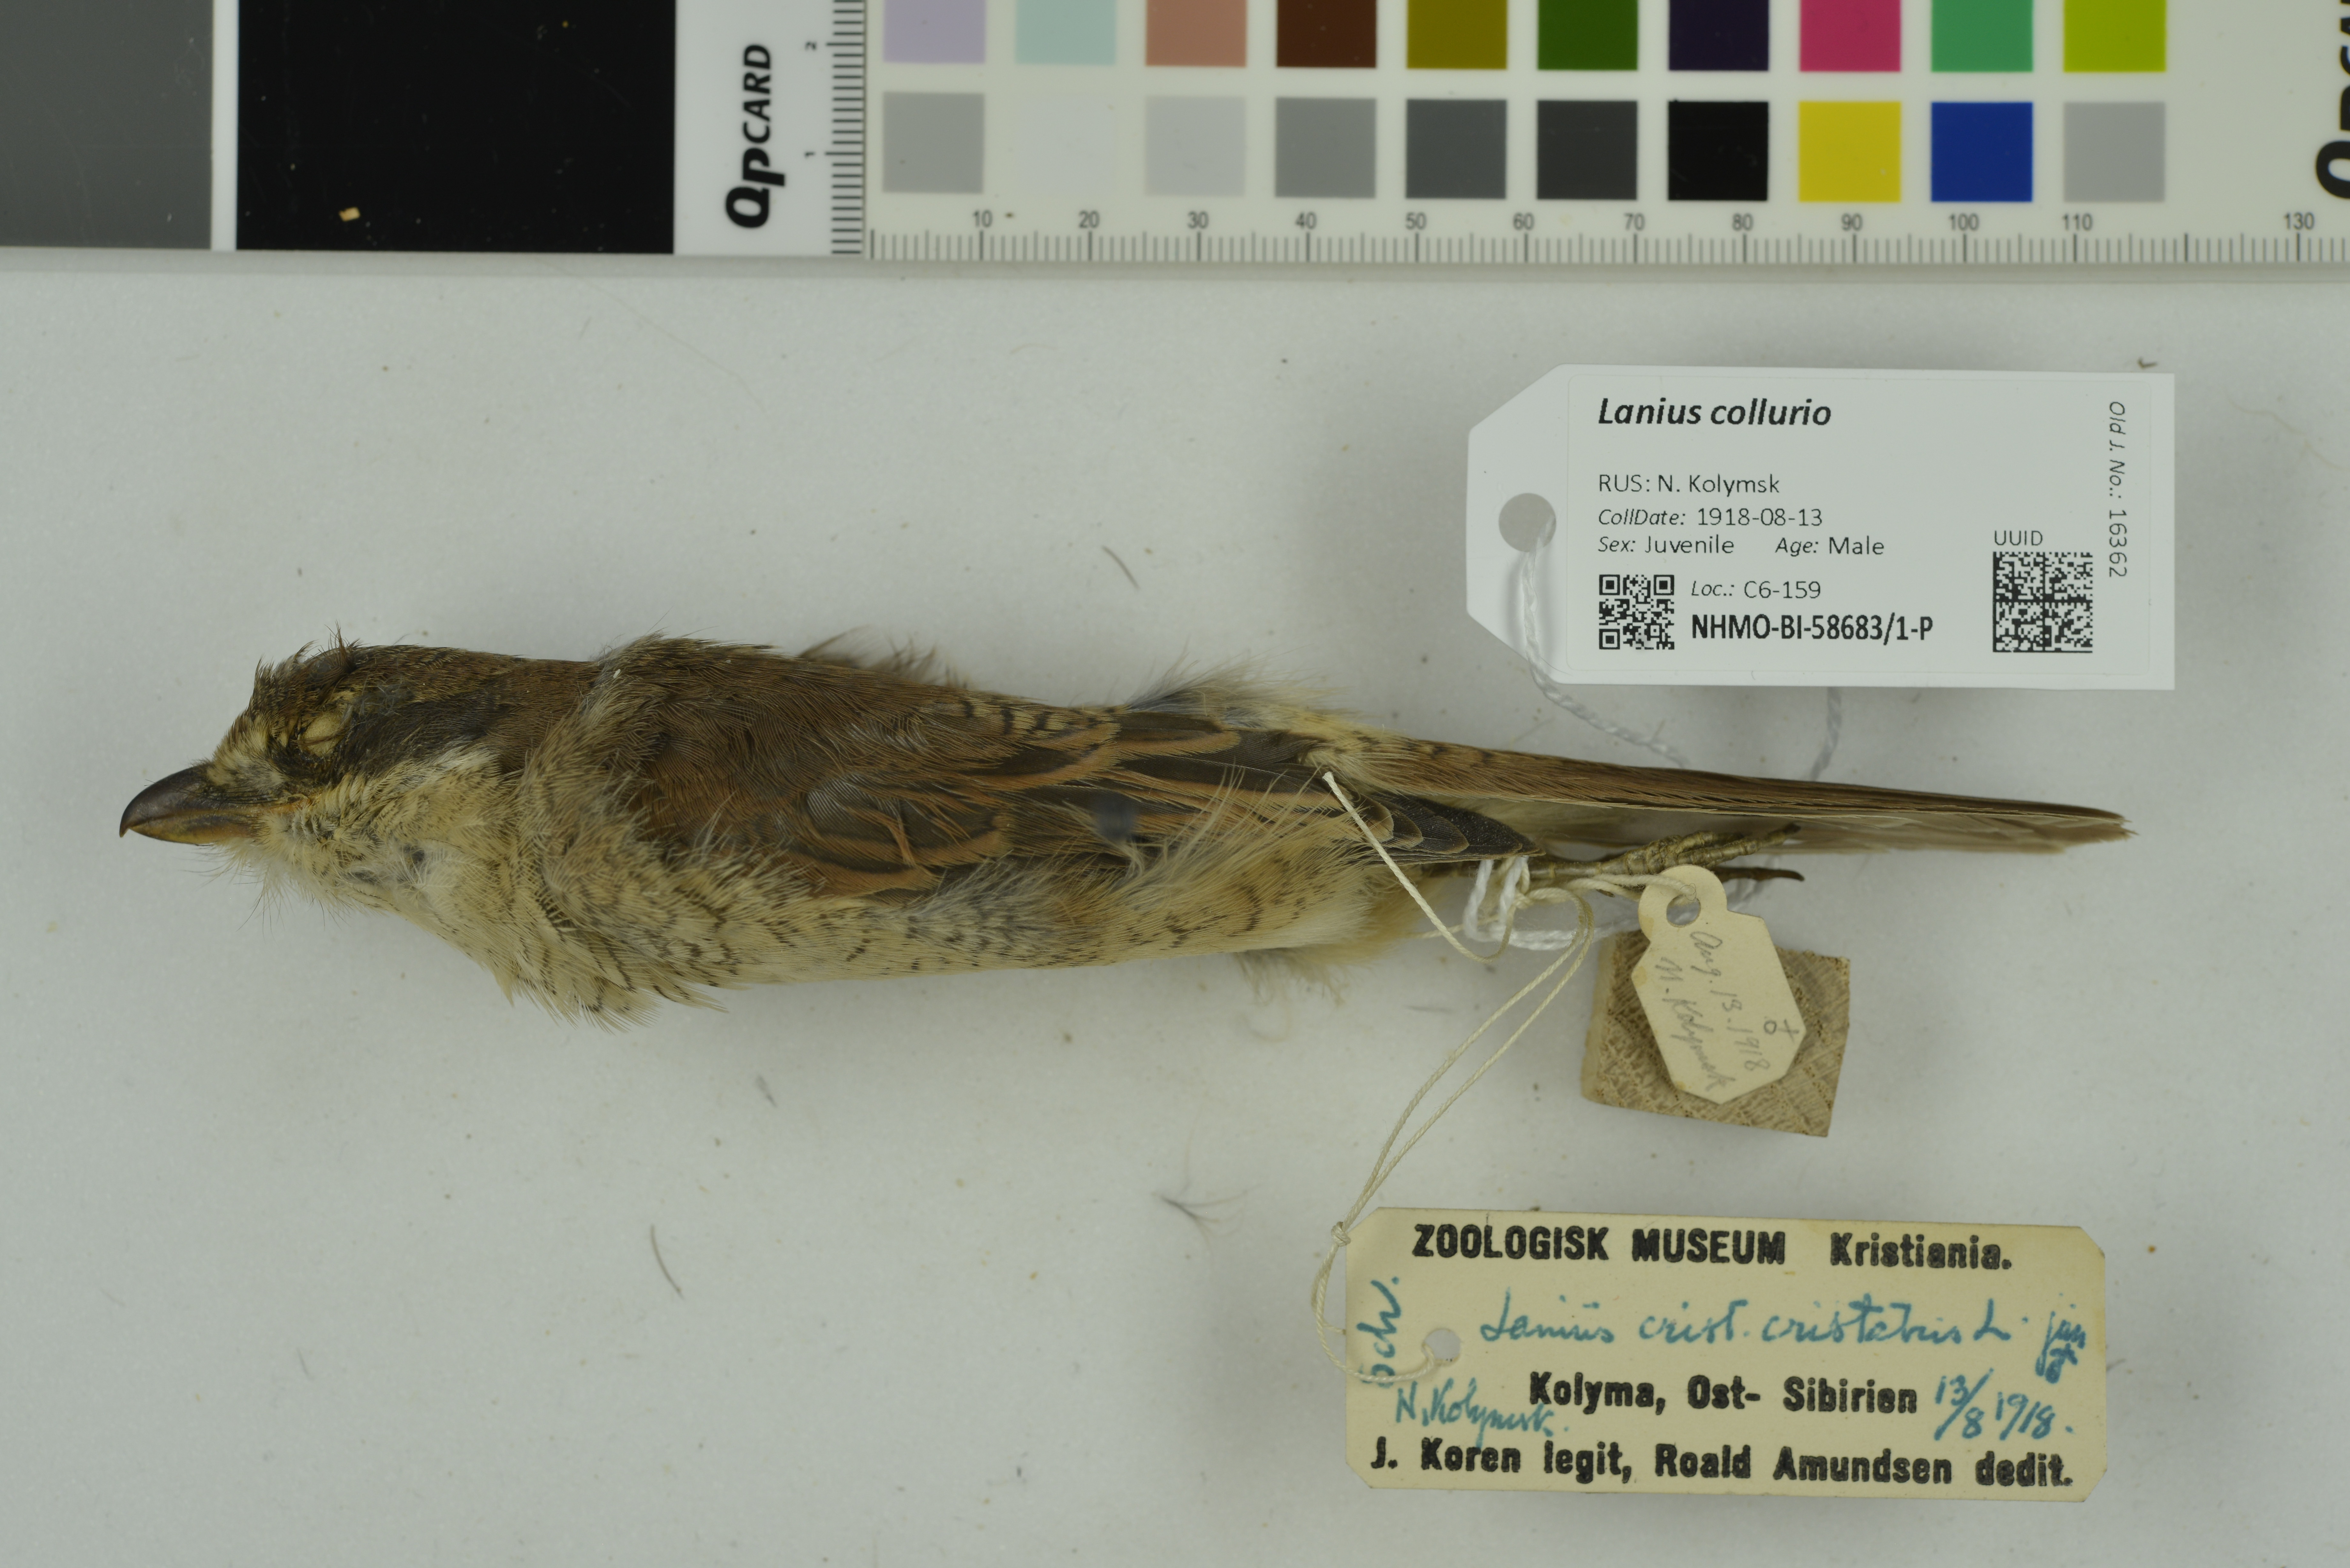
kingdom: Animalia
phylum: Chordata
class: Aves
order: Passeriformes
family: Laniidae
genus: Lanius
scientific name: Lanius collurio
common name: Red-backed shrike
